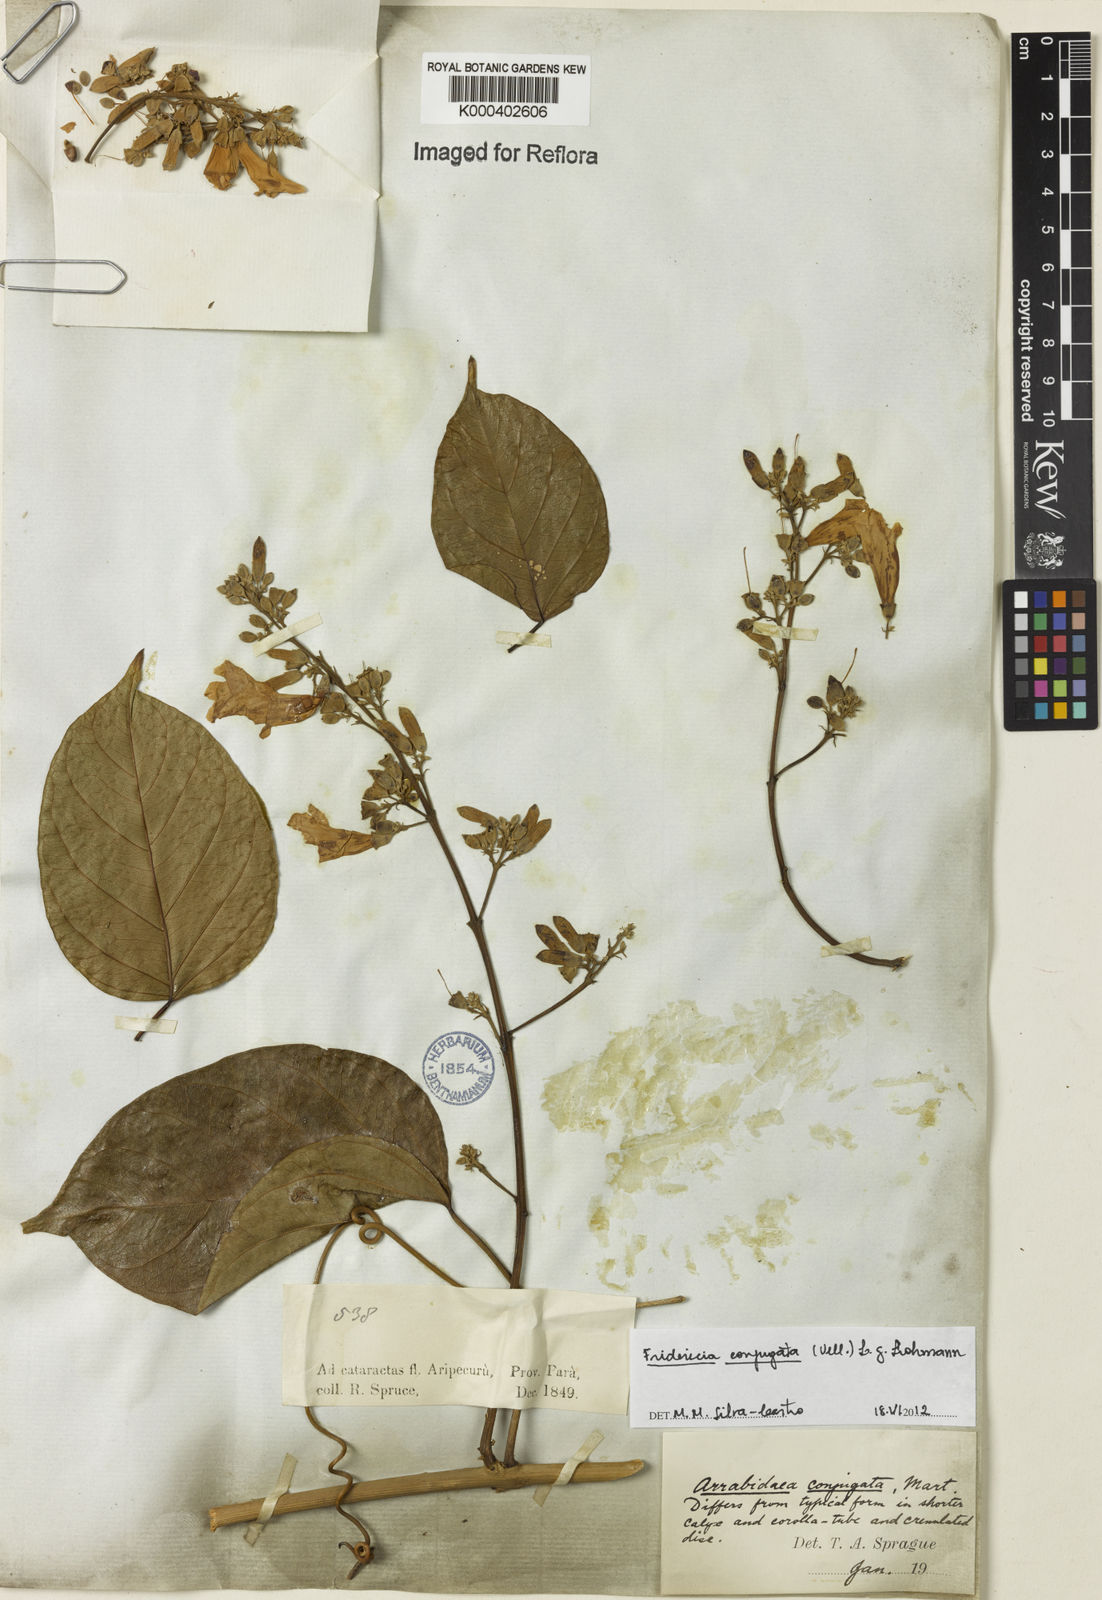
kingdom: Plantae
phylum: Tracheophyta
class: Magnoliopsida
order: Lamiales
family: Bignoniaceae
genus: Fridericia
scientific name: Fridericia conjugata
